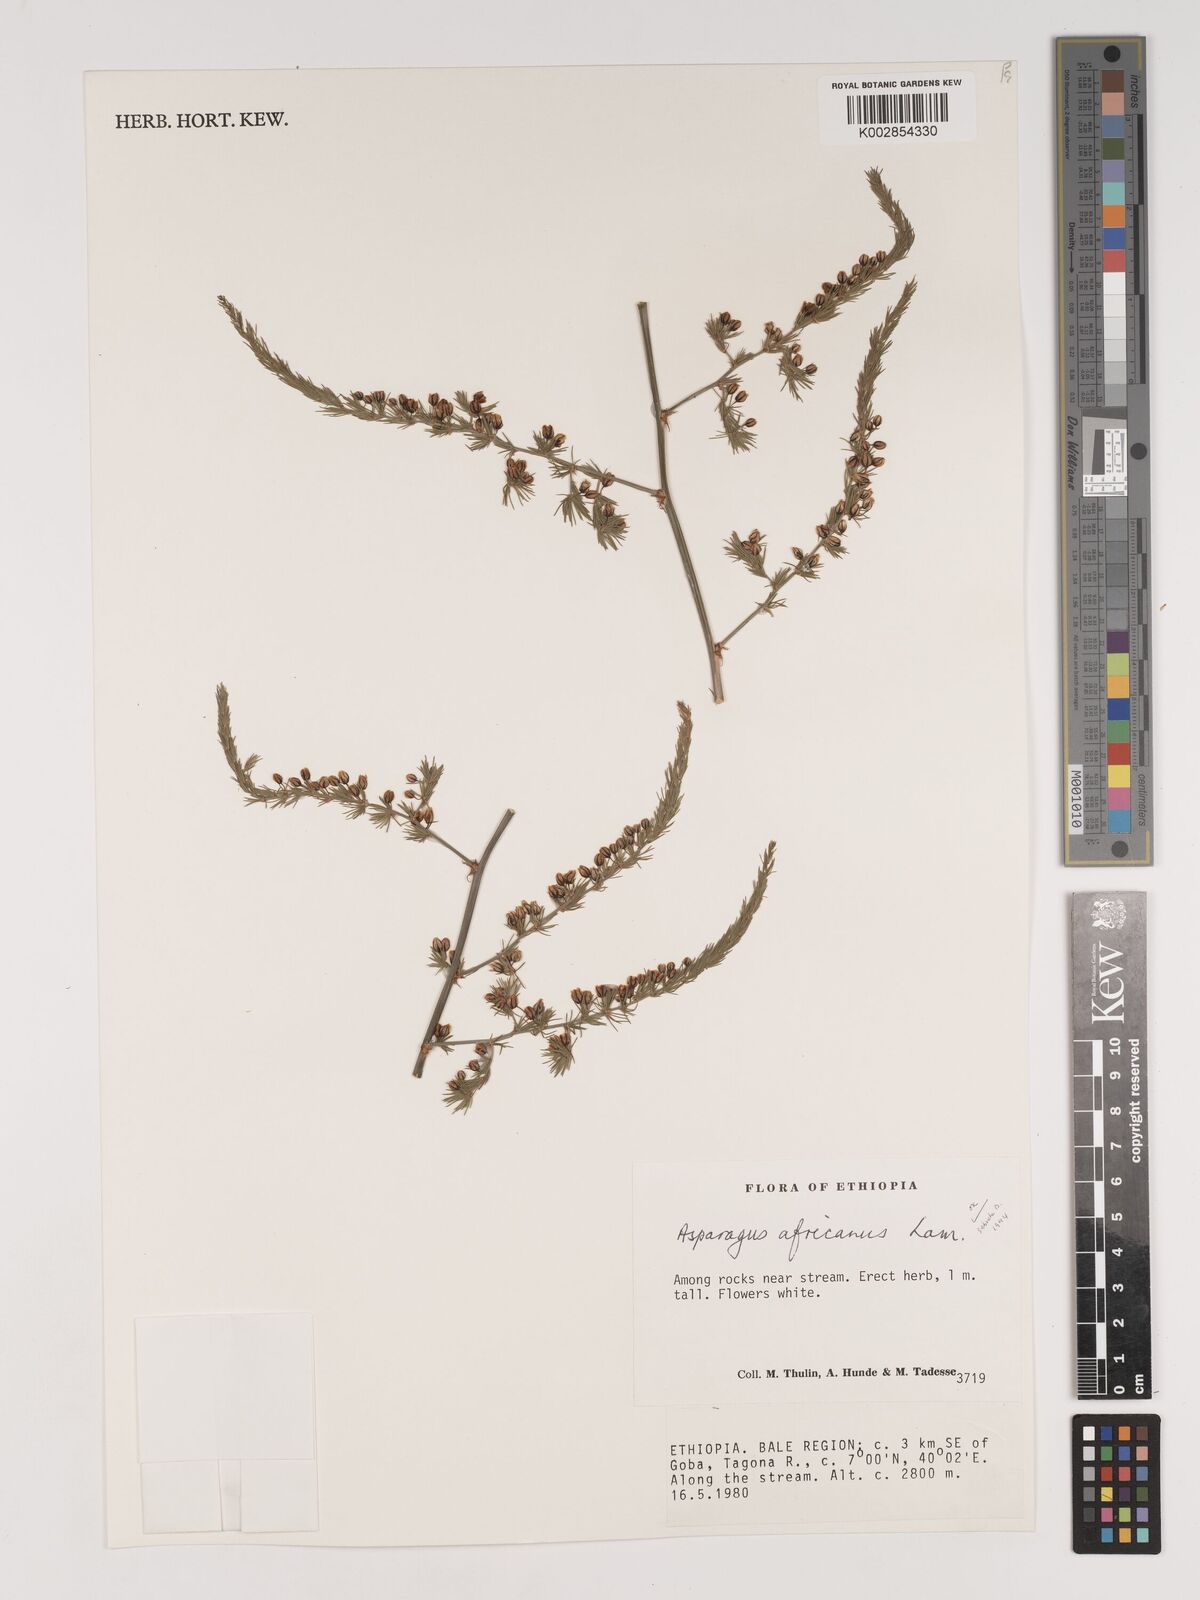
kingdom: Plantae
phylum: Tracheophyta
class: Liliopsida
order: Asparagales
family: Asparagaceae
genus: Asparagus
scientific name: Asparagus africanus
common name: Asparagus-fern
